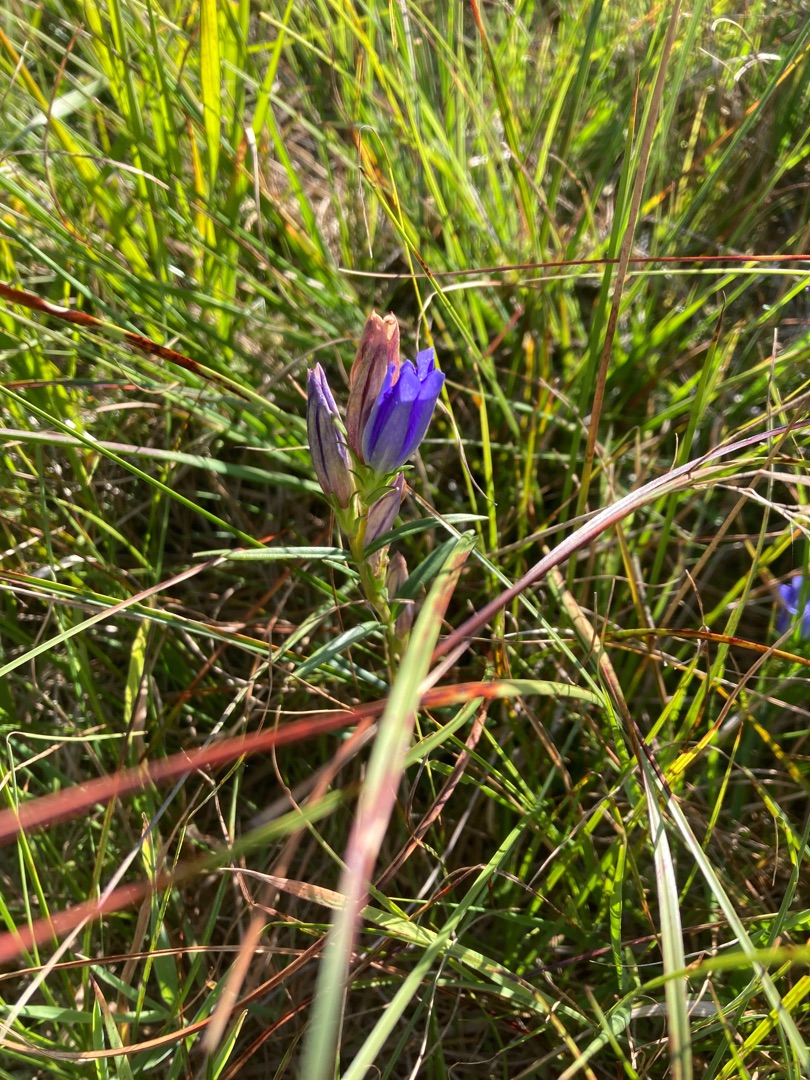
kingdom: Plantae
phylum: Tracheophyta
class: Magnoliopsida
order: Gentianales
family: Gentianaceae
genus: Gentiana
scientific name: Gentiana pneumonanthe
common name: Klokke-ensian
